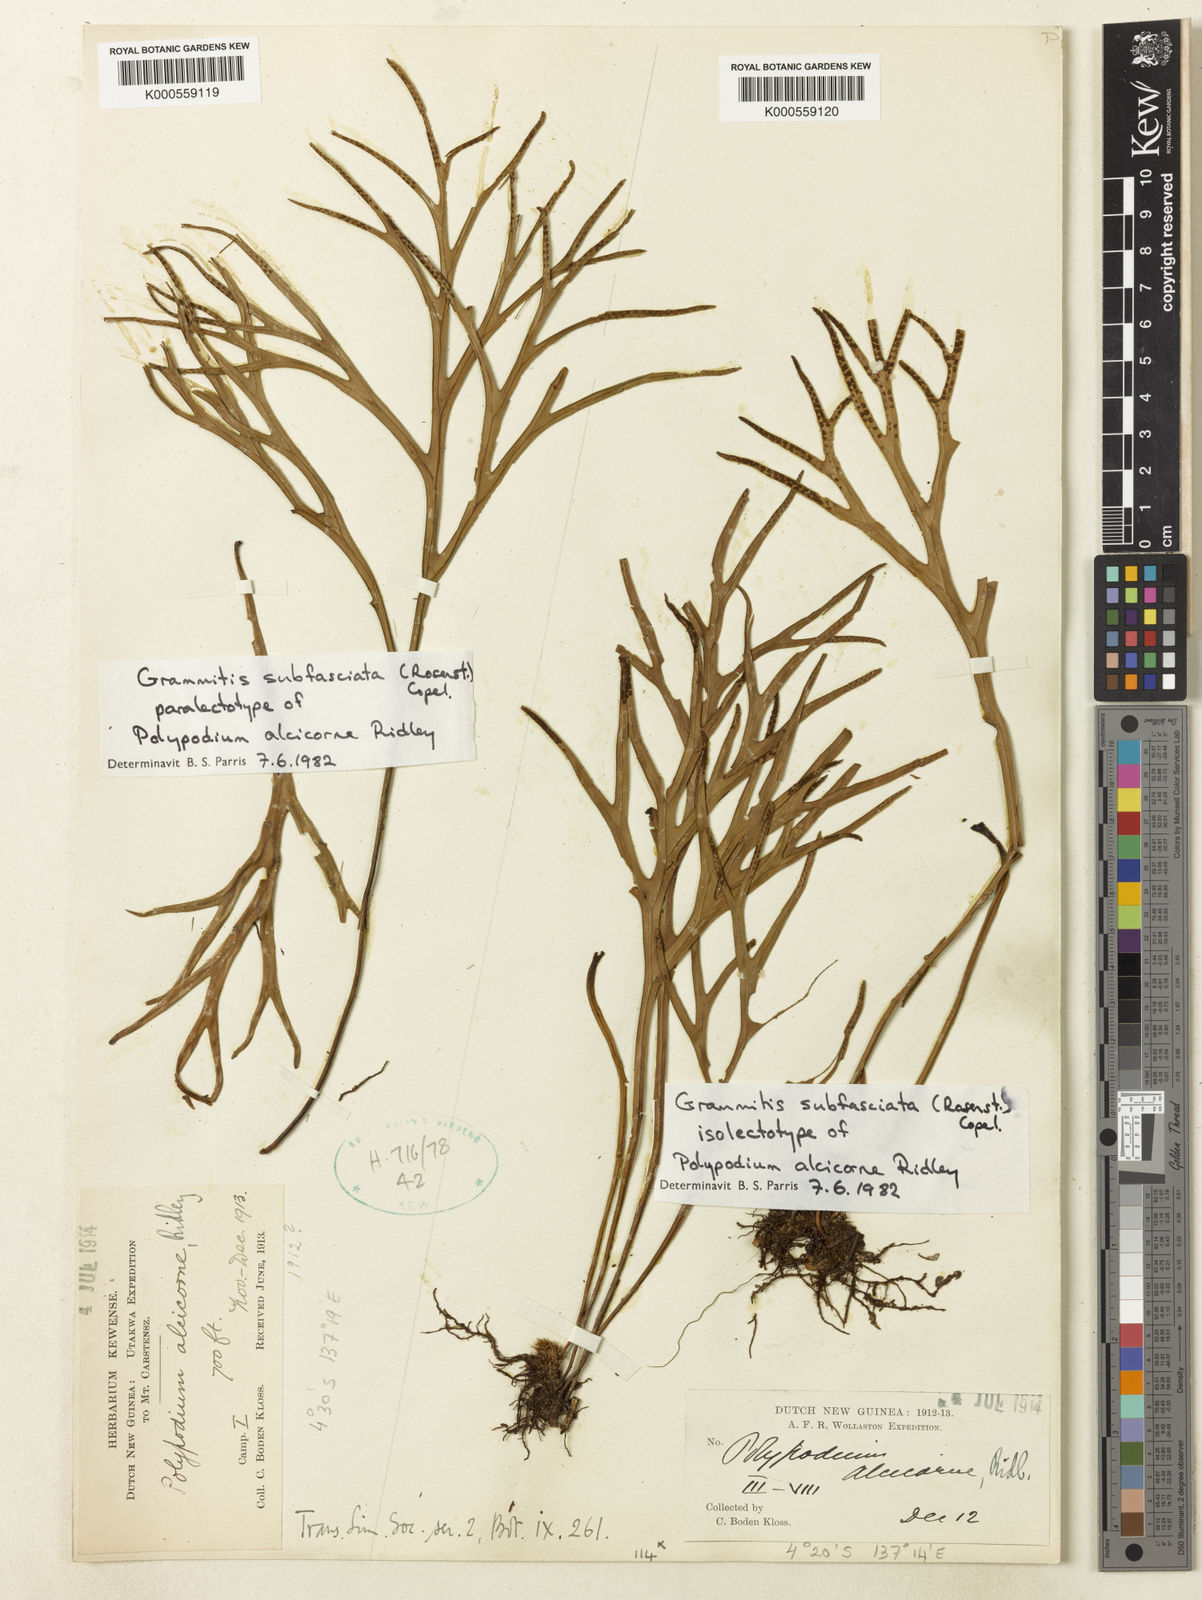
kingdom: Plantae
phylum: Tracheophyta
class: Polypodiopsida
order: Polypodiales
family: Polypodiaceae
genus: Oreogrammitis
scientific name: Oreogrammitis subfasciata
